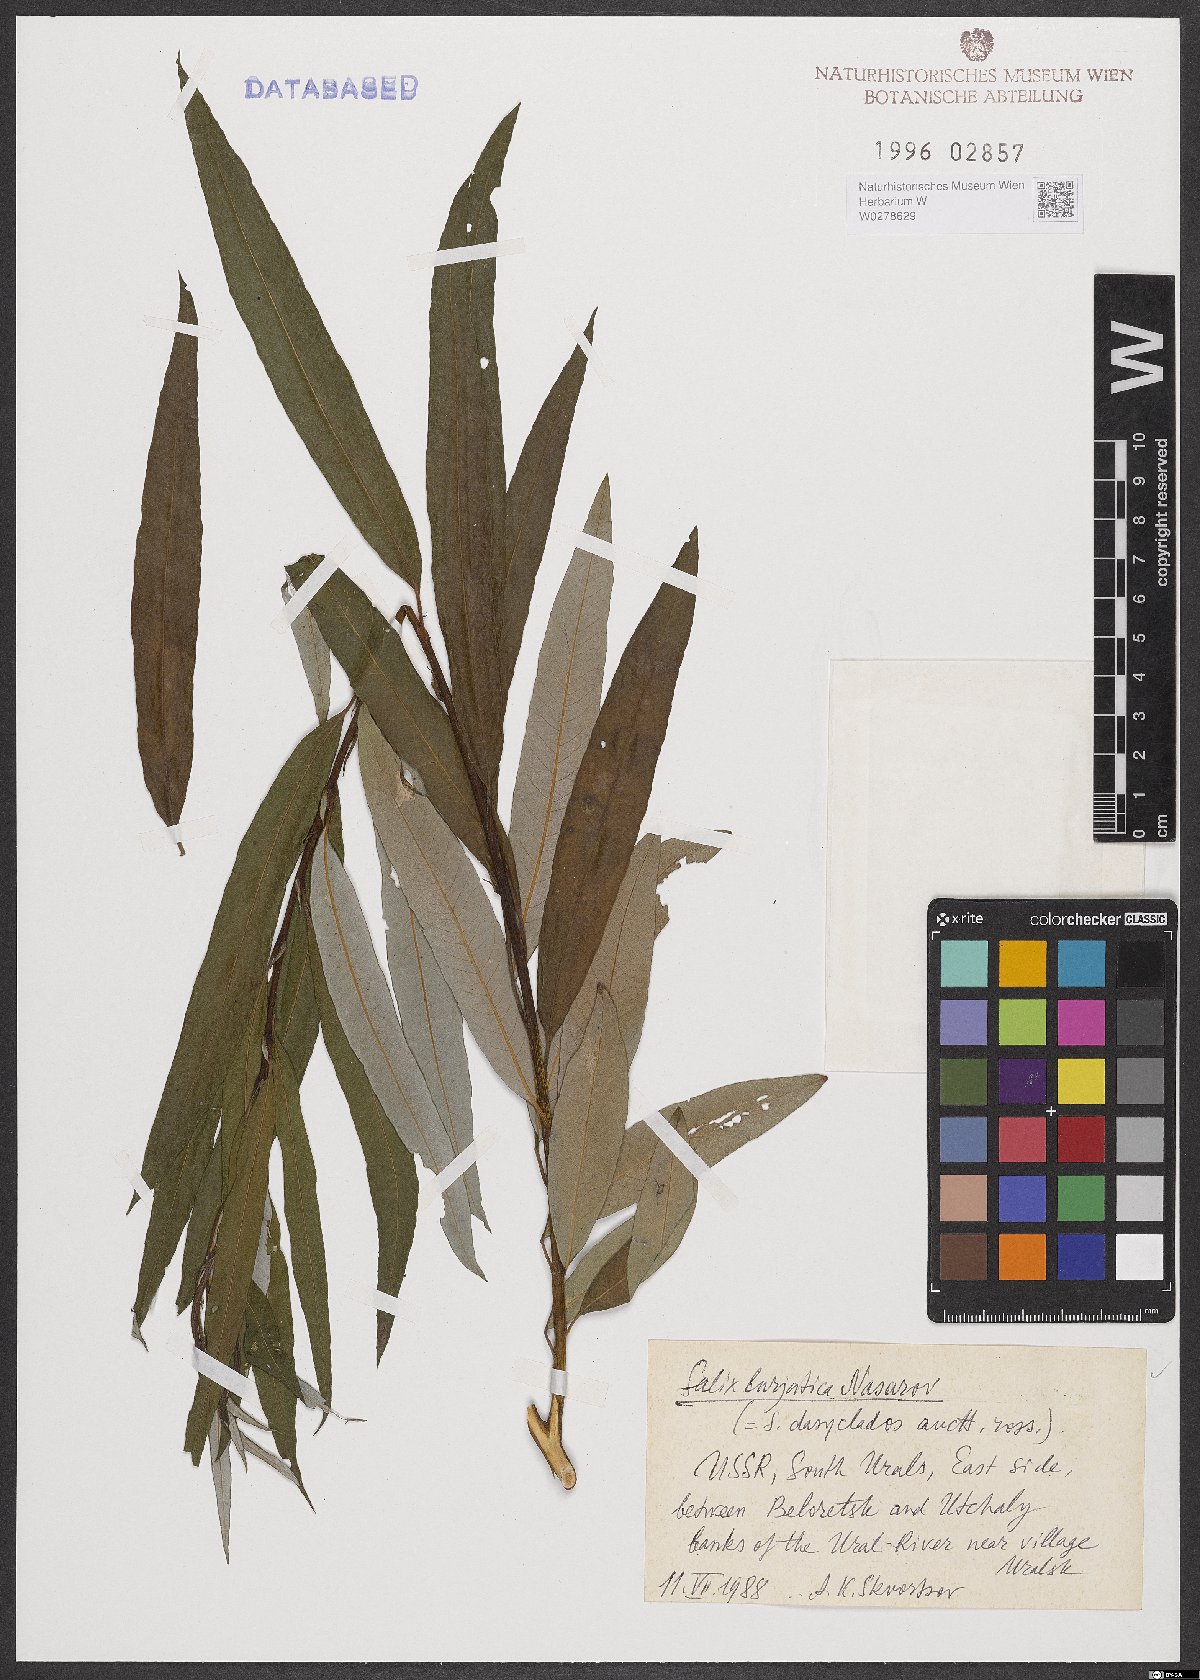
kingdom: Plantae
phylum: Tracheophyta
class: Magnoliopsida
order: Malpighiales
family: Salicaceae
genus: Salix
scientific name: Salix gmelinii
